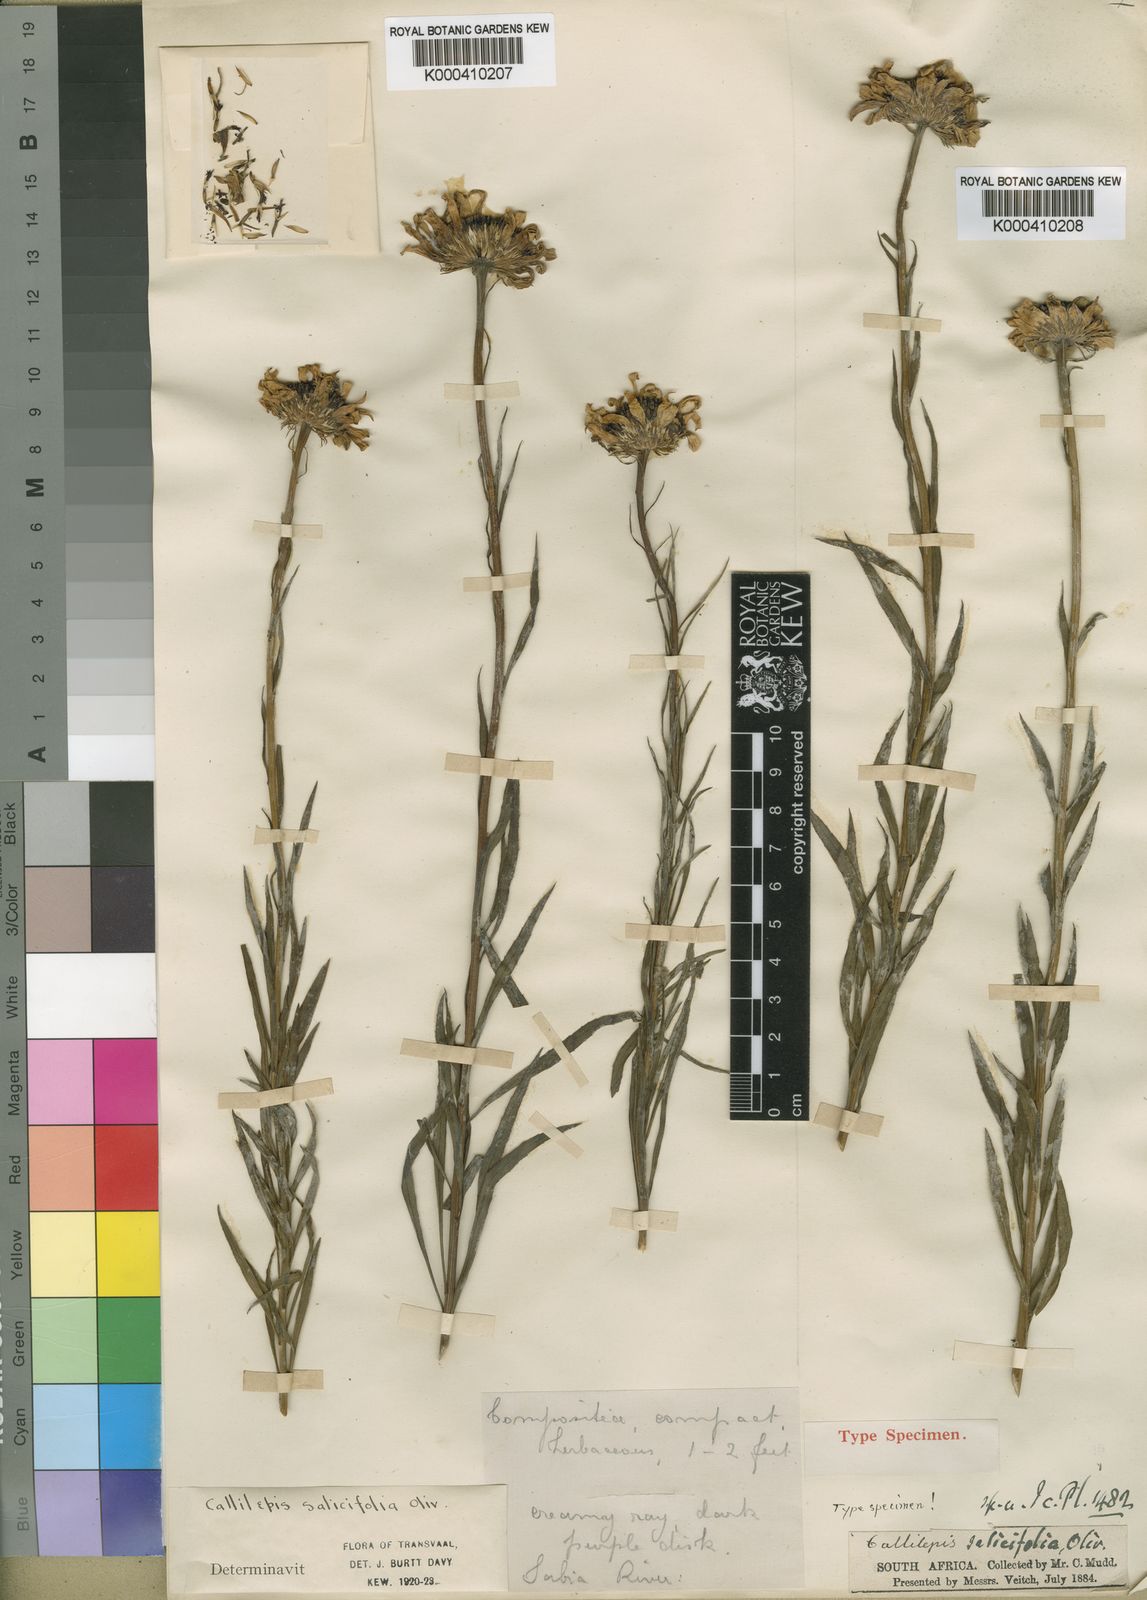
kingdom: Plantae
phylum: Tracheophyta
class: Magnoliopsida
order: Asterales
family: Asteraceae
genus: Callilepis
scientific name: Callilepis salicifolia
